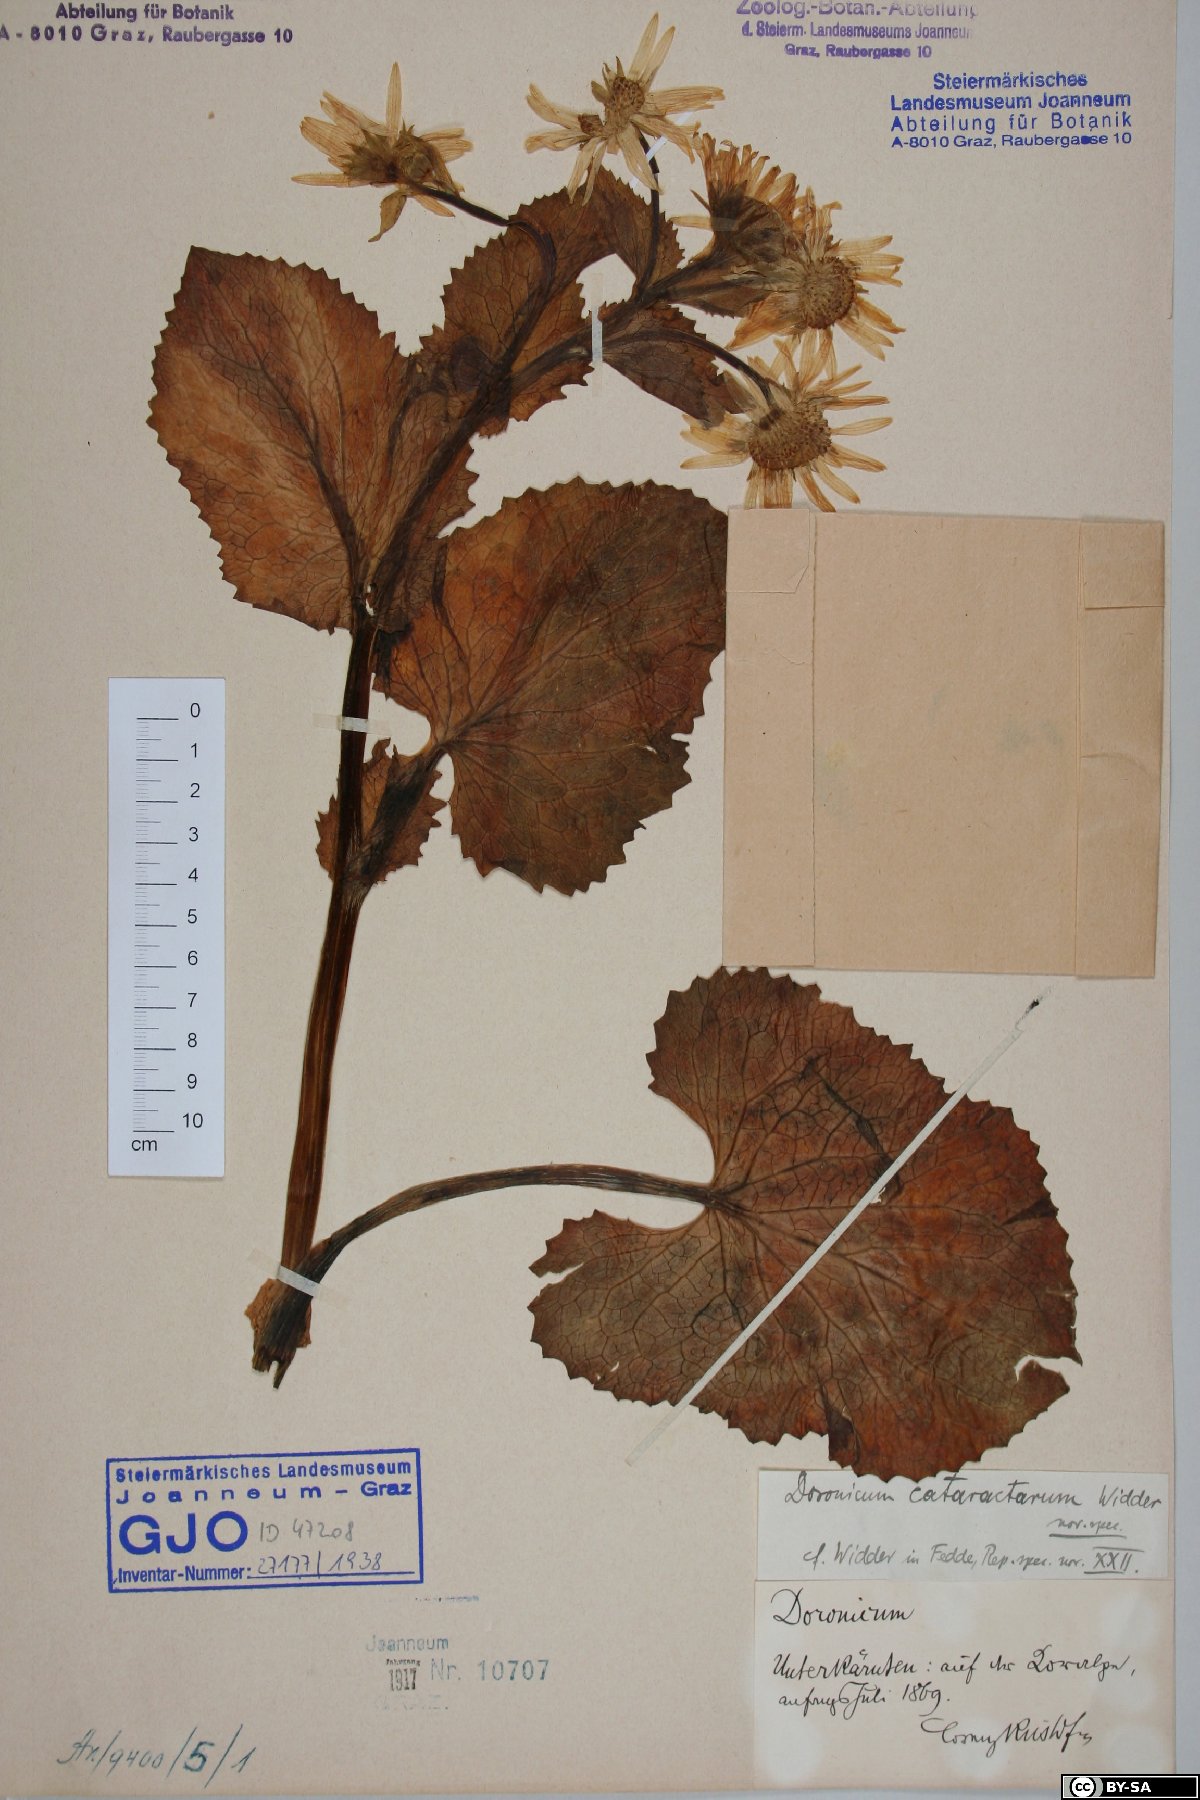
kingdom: Plantae
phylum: Tracheophyta
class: Magnoliopsida
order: Asterales
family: Asteraceae
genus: Doronicum
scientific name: Doronicum cataractarum
